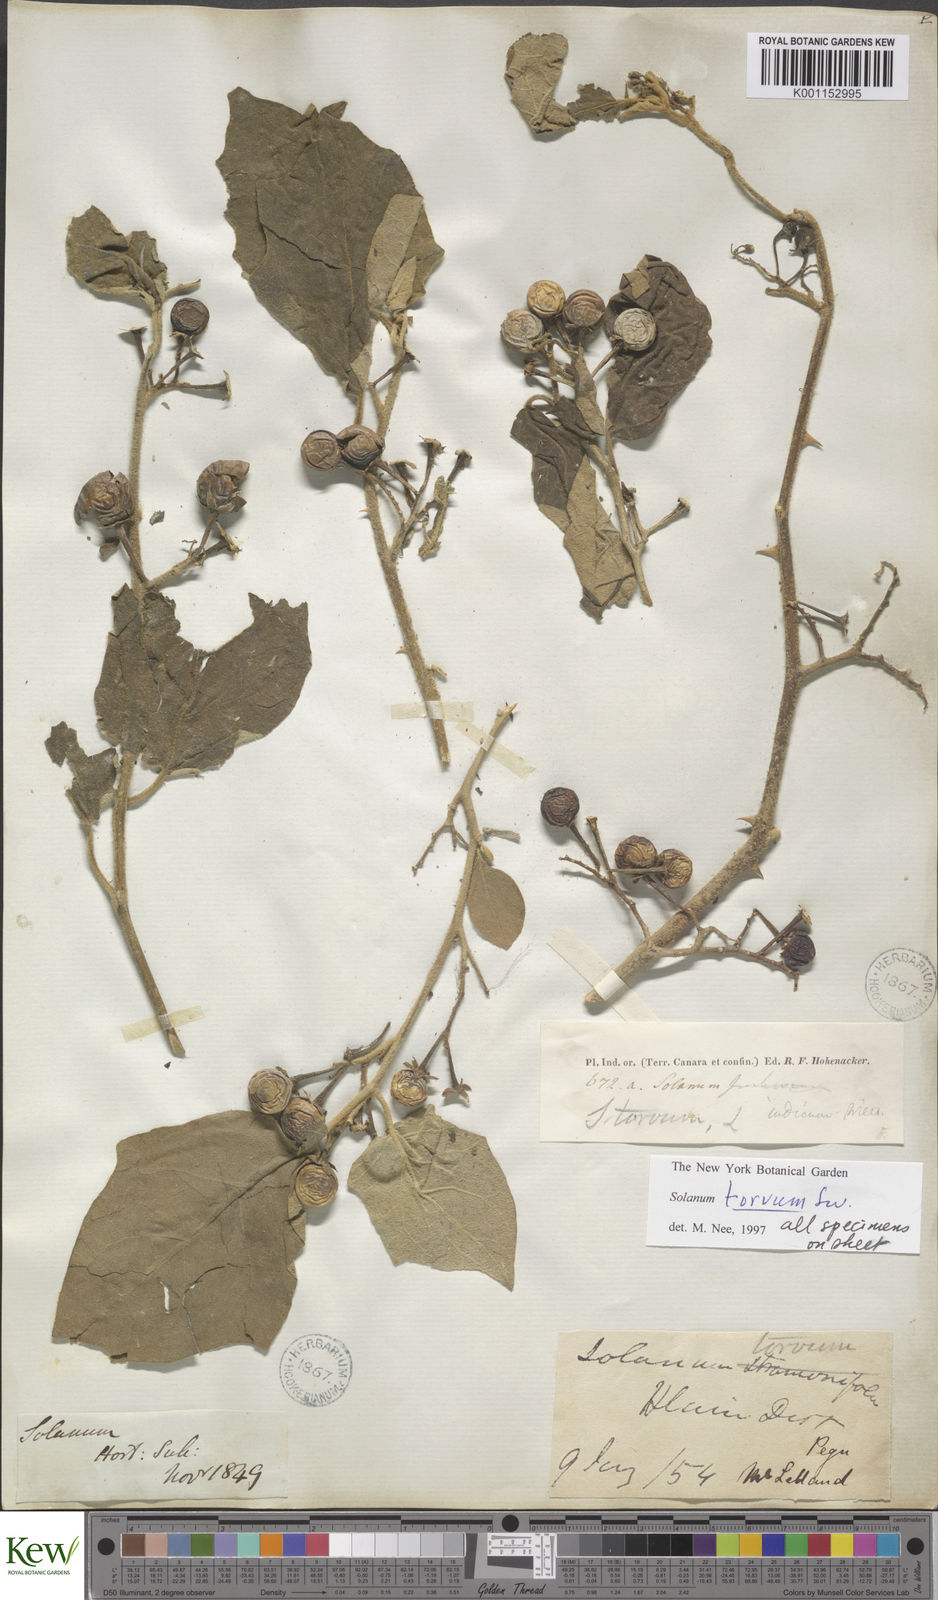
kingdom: Plantae
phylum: Tracheophyta
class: Magnoliopsida
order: Solanales
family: Solanaceae
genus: Solanum
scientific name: Solanum torvum
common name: Turkey berry
